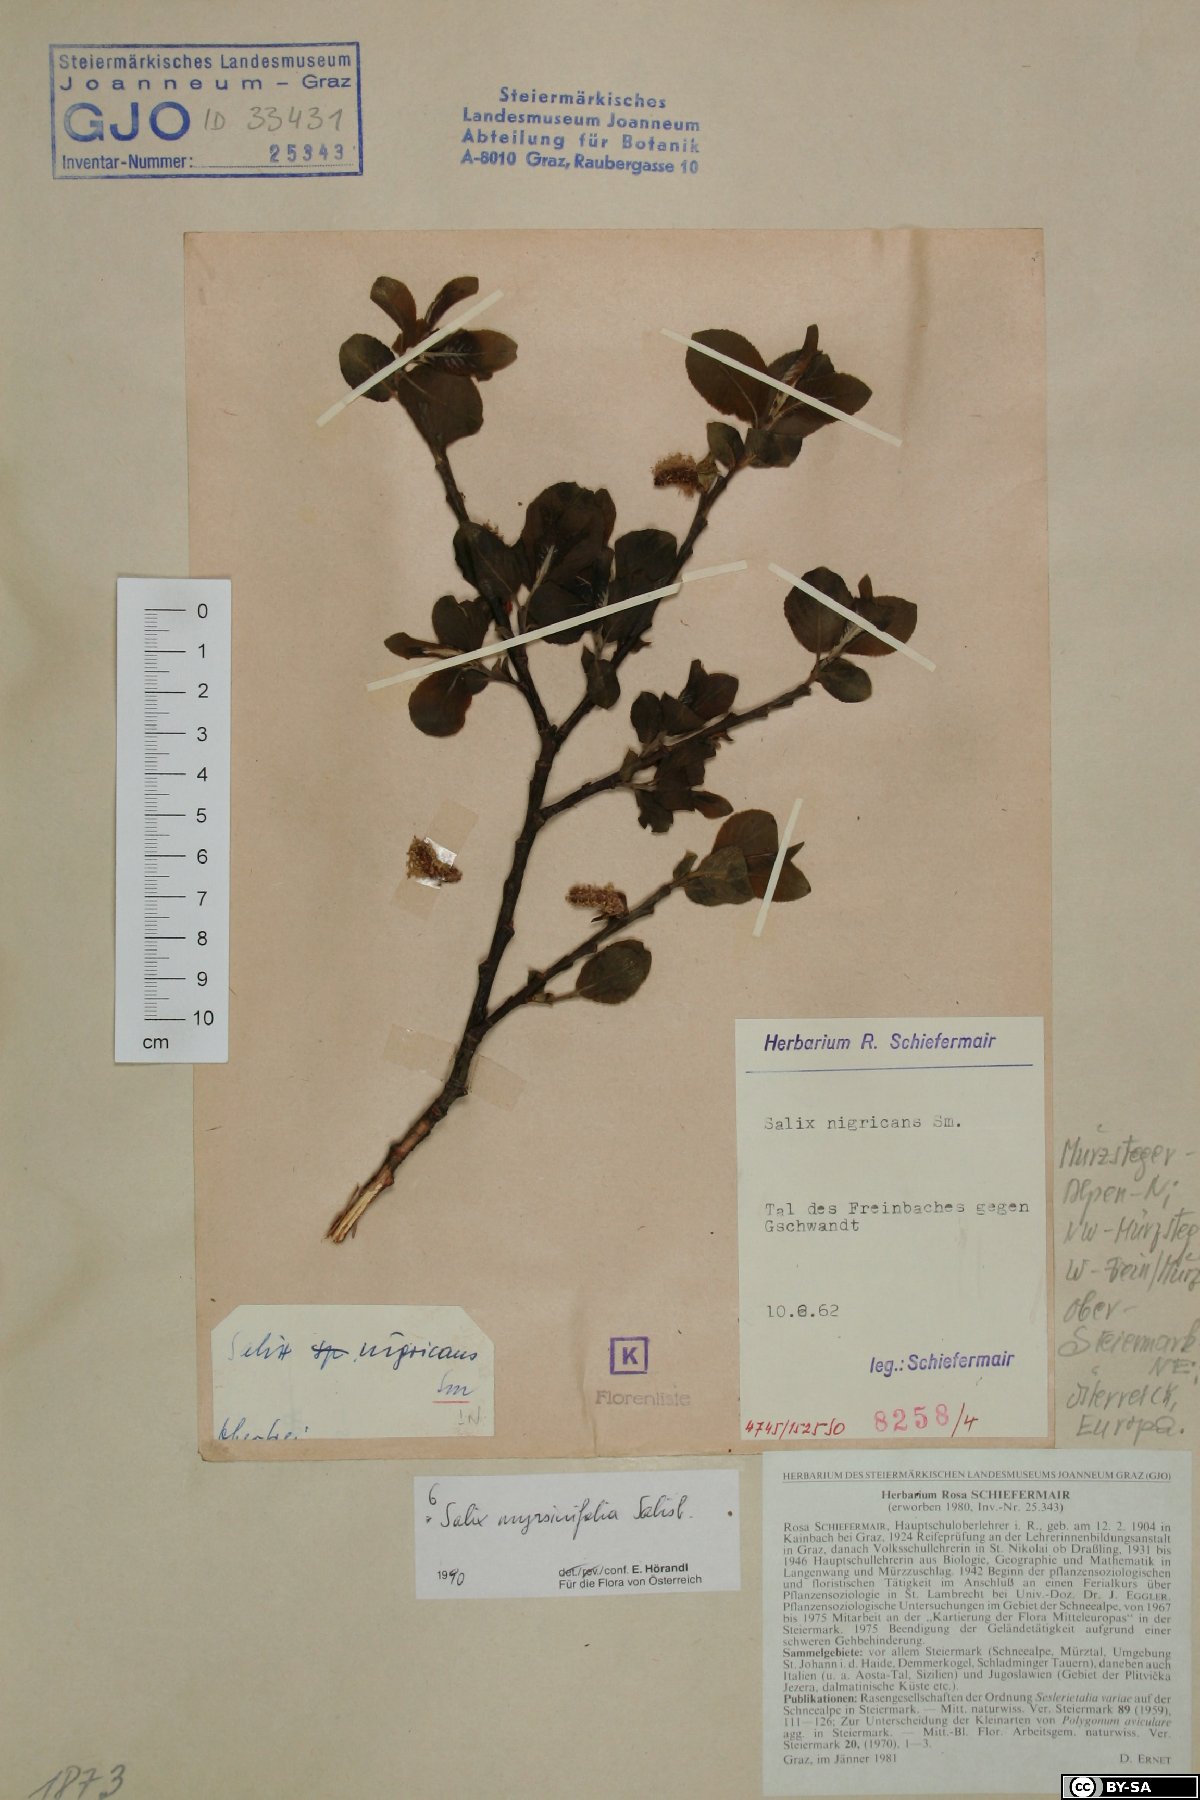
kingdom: Plantae
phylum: Tracheophyta
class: Magnoliopsida
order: Malpighiales
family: Salicaceae
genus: Salix
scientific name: Salix myrsinifolia
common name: Dark-leaved willow
